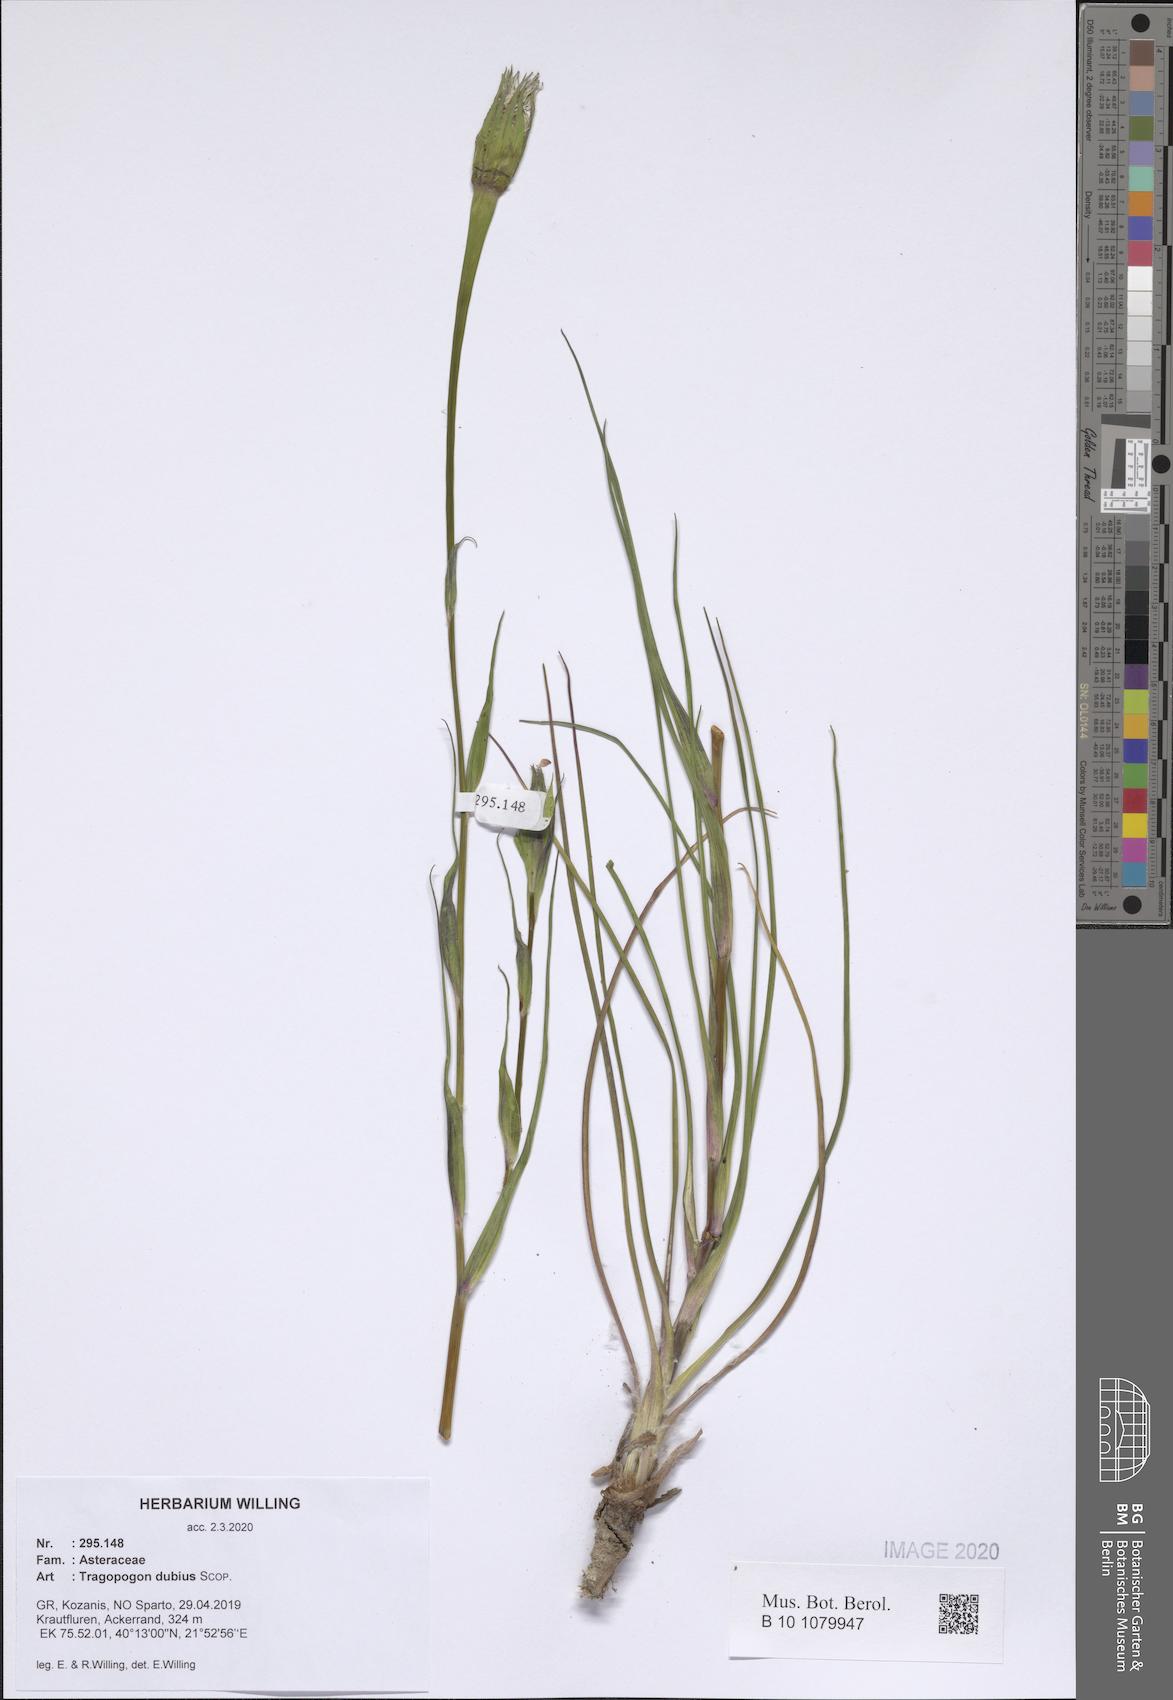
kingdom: Plantae
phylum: Tracheophyta
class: Magnoliopsida
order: Asterales
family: Asteraceae
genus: Tragopogon
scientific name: Tragopogon dubius
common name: Yellow salsify
